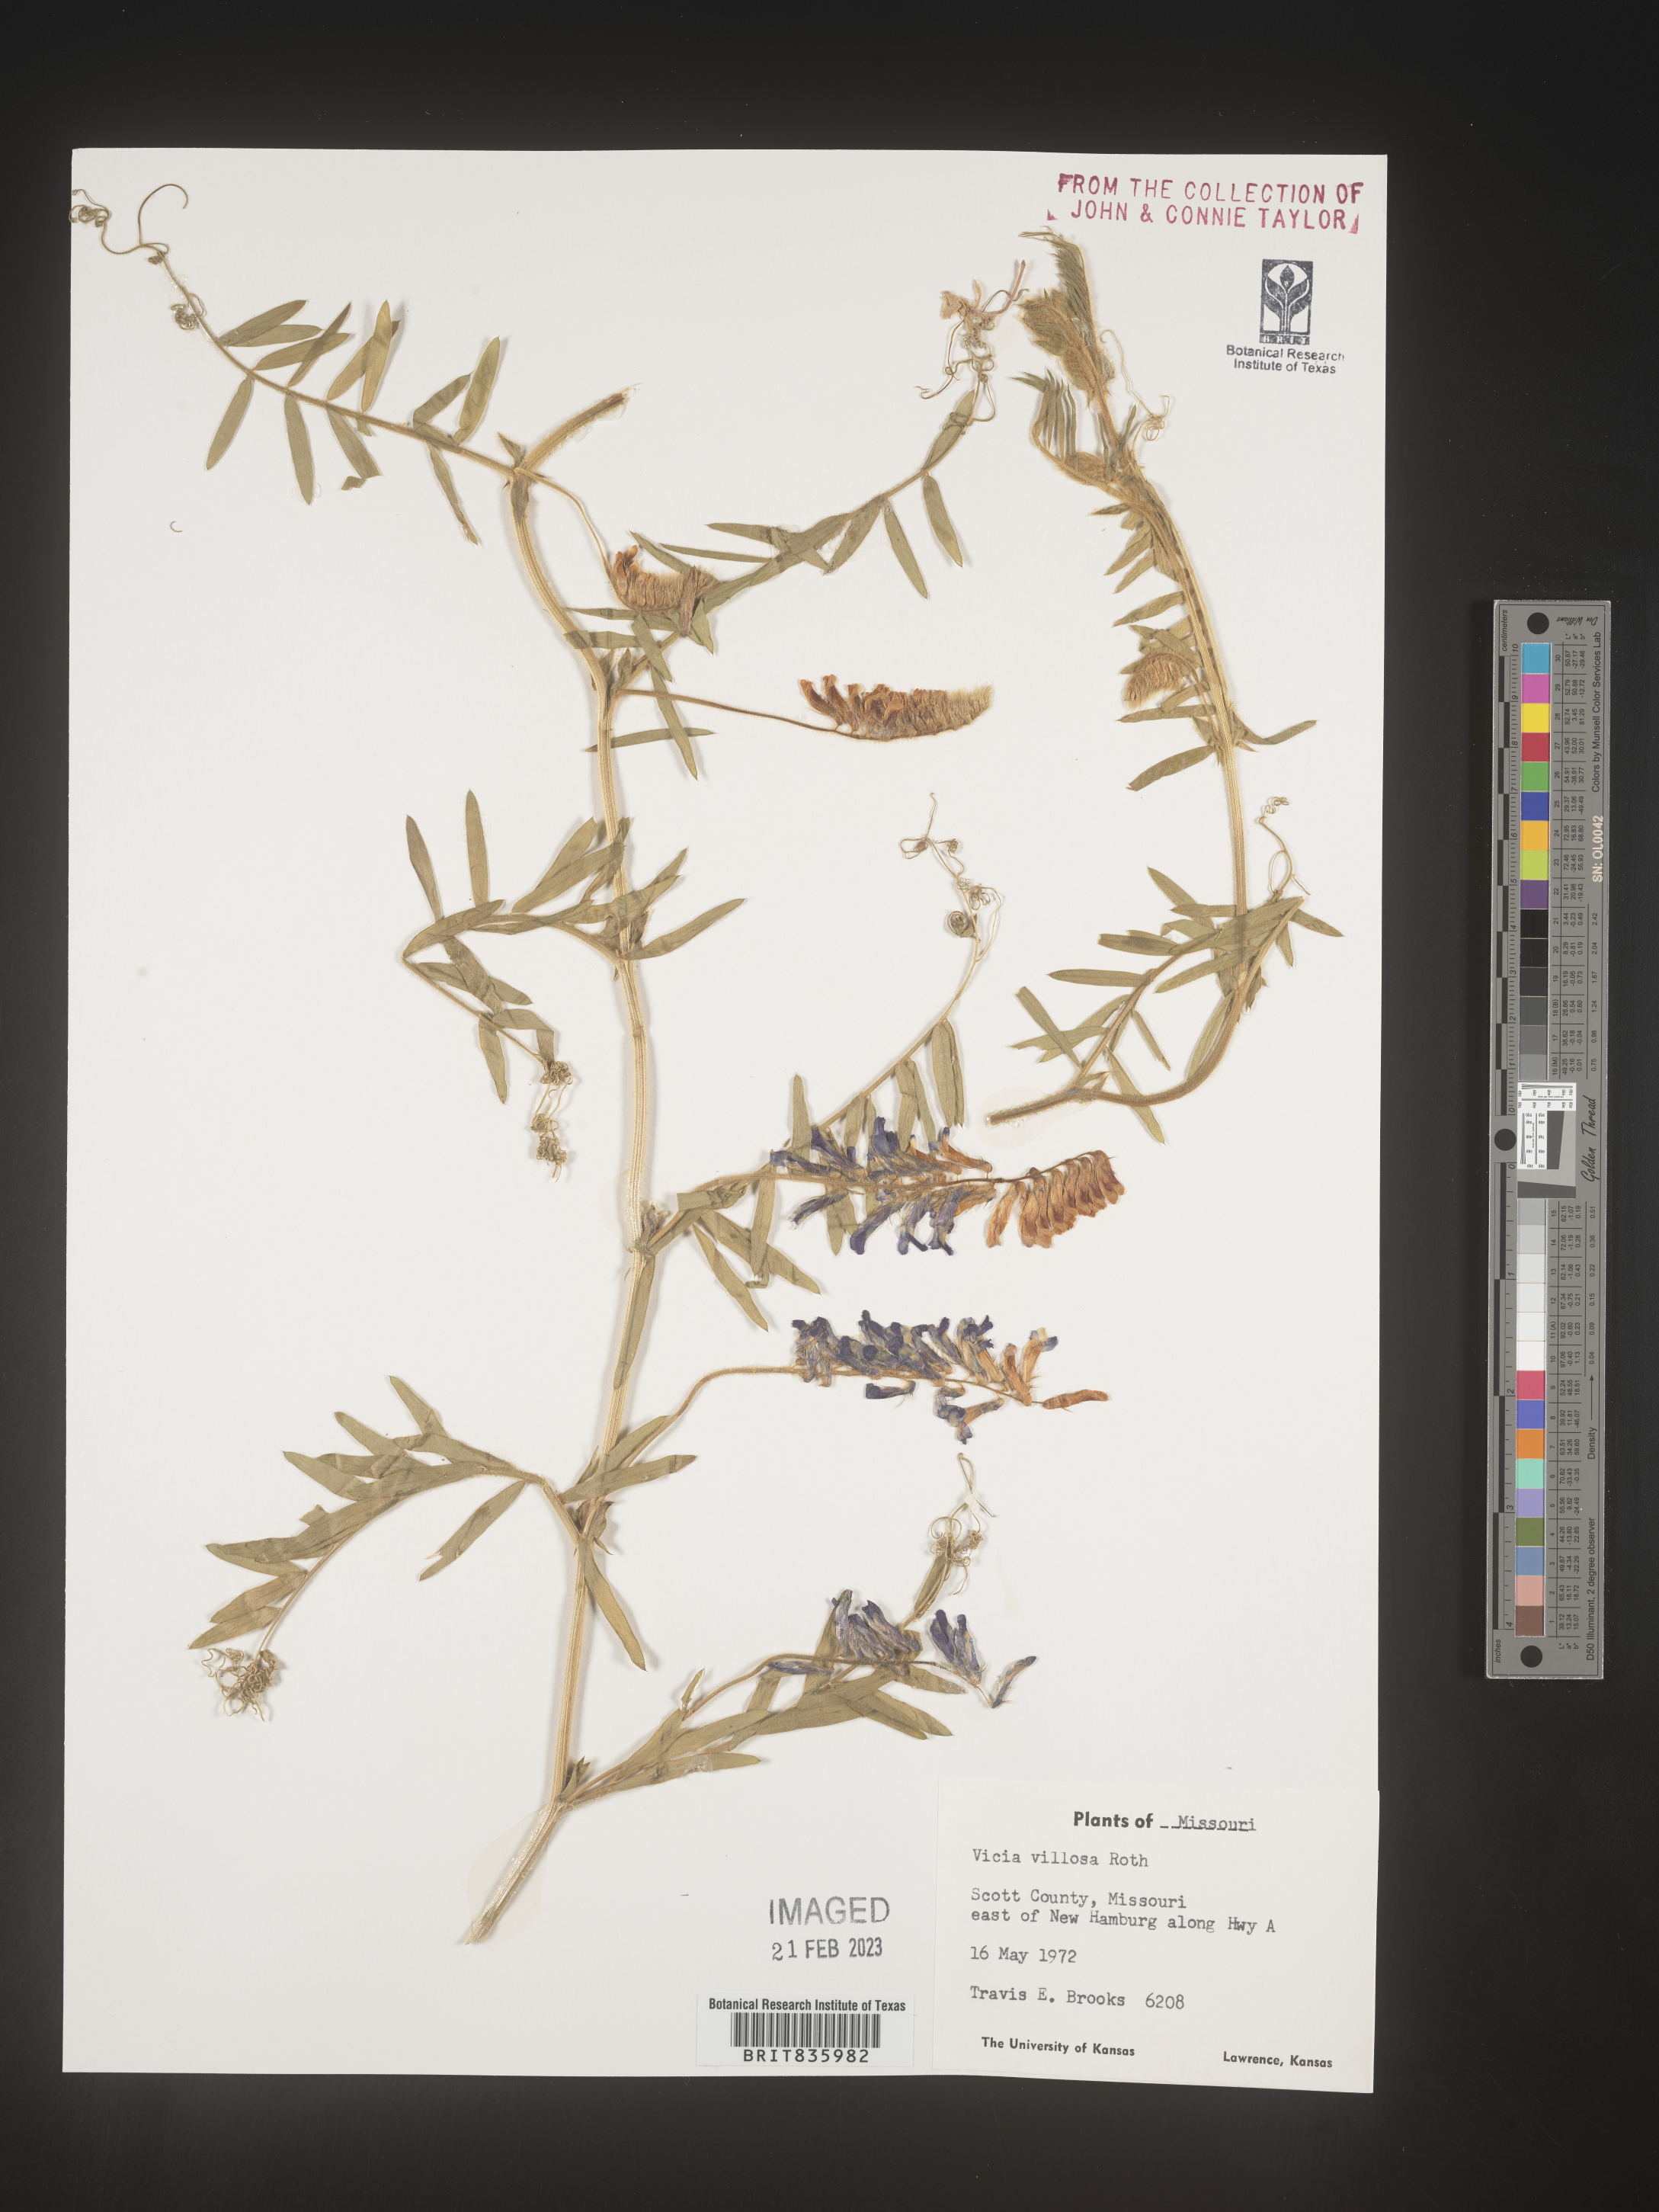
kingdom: Plantae
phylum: Tracheophyta
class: Magnoliopsida
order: Fabales
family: Fabaceae
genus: Vicia
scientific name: Vicia villosa
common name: Fodder vetch
